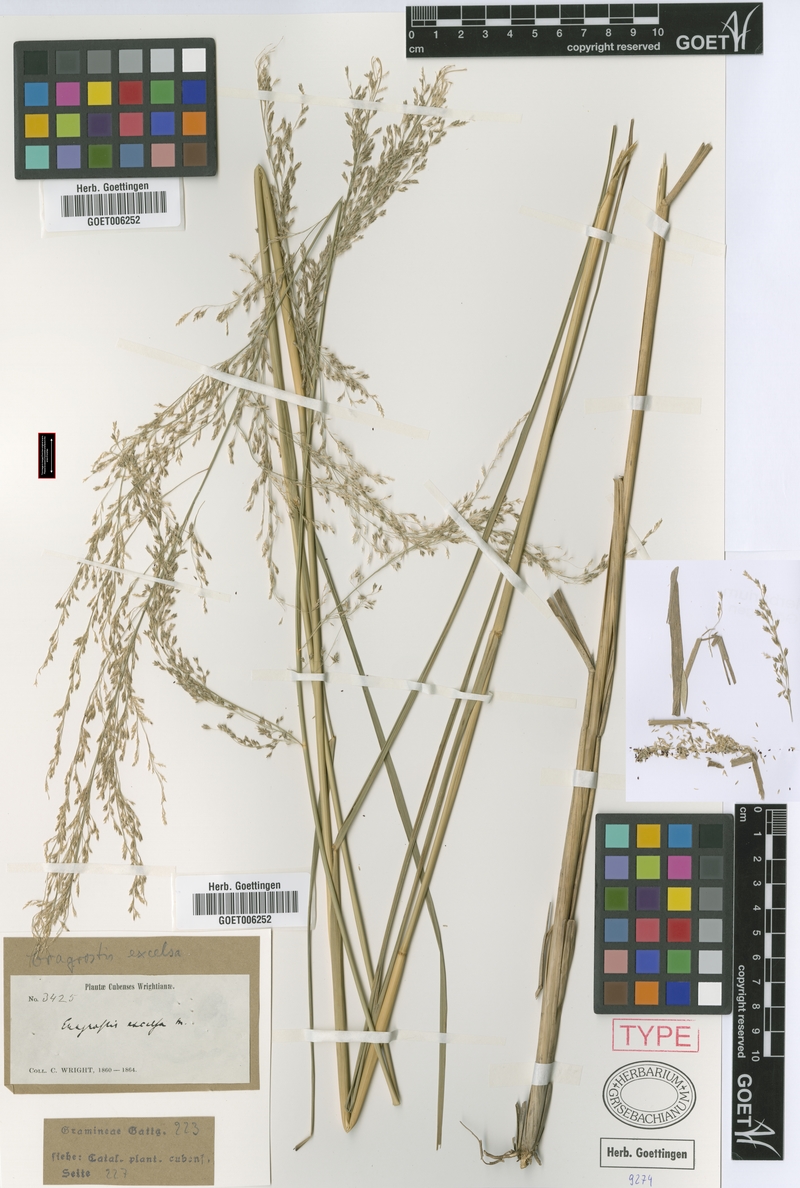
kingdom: Plantae
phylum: Tracheophyta
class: Liliopsida
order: Poales
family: Poaceae
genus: Eragrostis
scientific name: Eragrostis prolifera
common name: Dominican lovegrass
